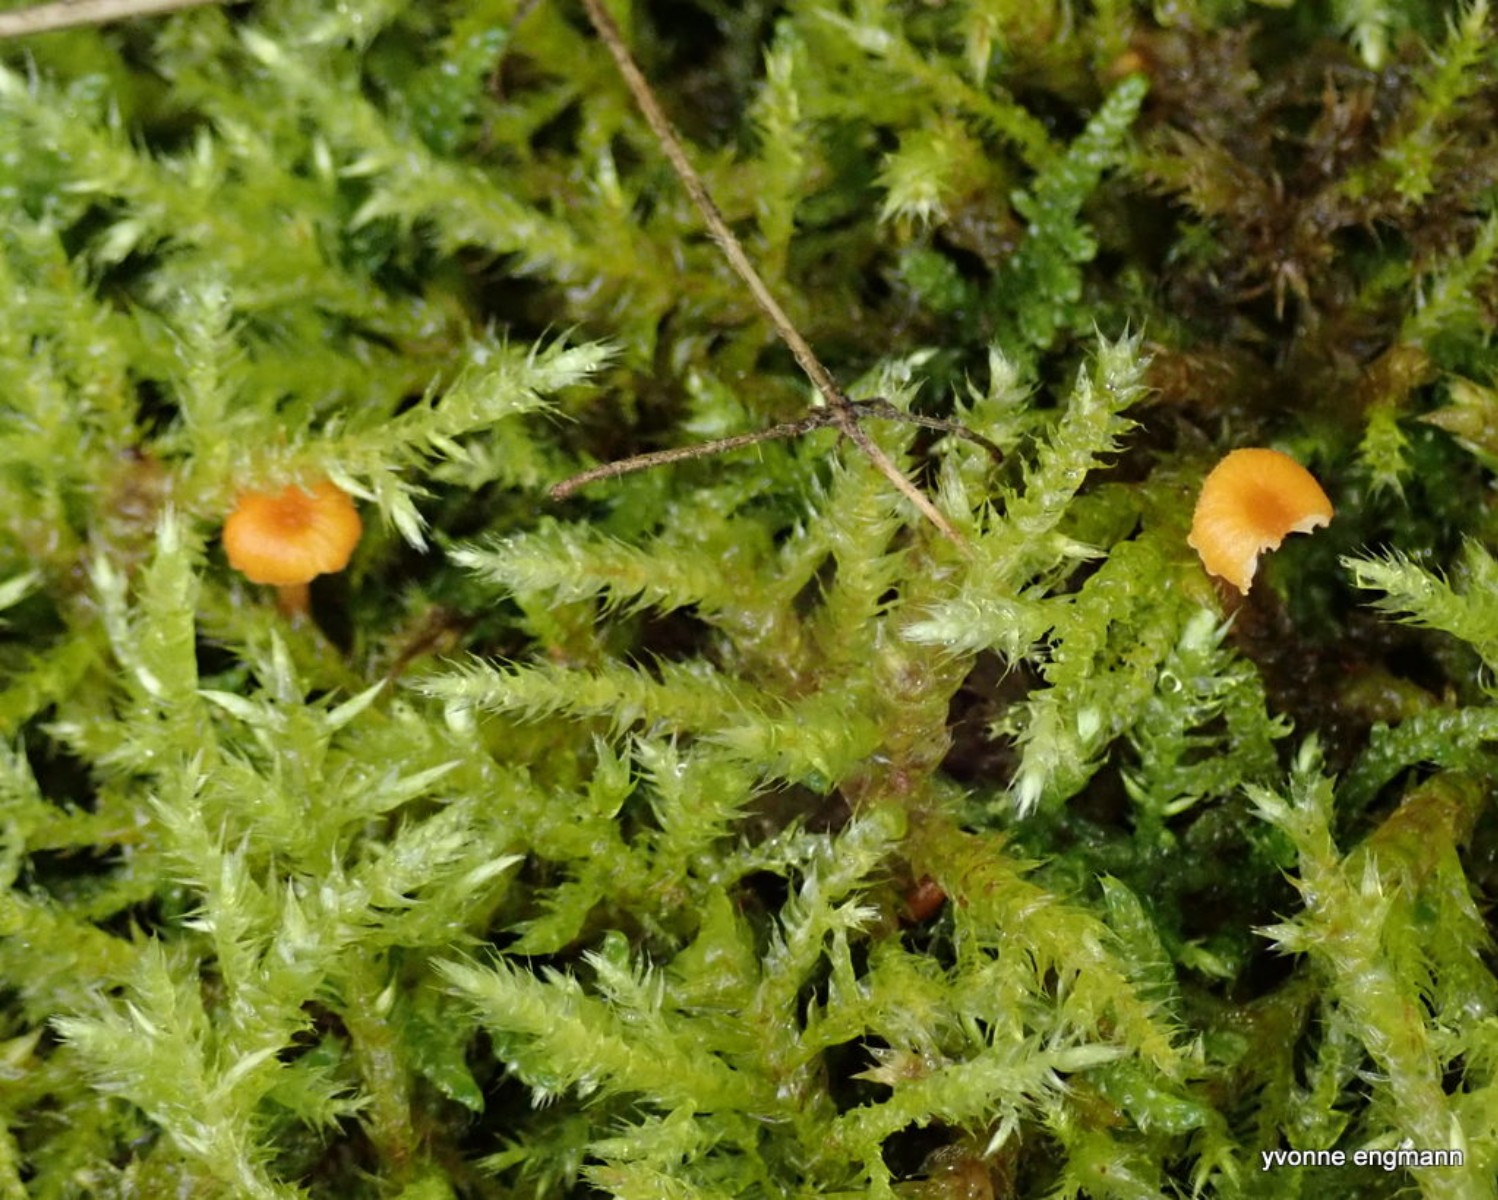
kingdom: Fungi
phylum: Basidiomycota
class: Agaricomycetes
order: Hymenochaetales
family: Rickenellaceae
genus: Rickenella
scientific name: Rickenella fibula
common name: orange mosnavlehat
